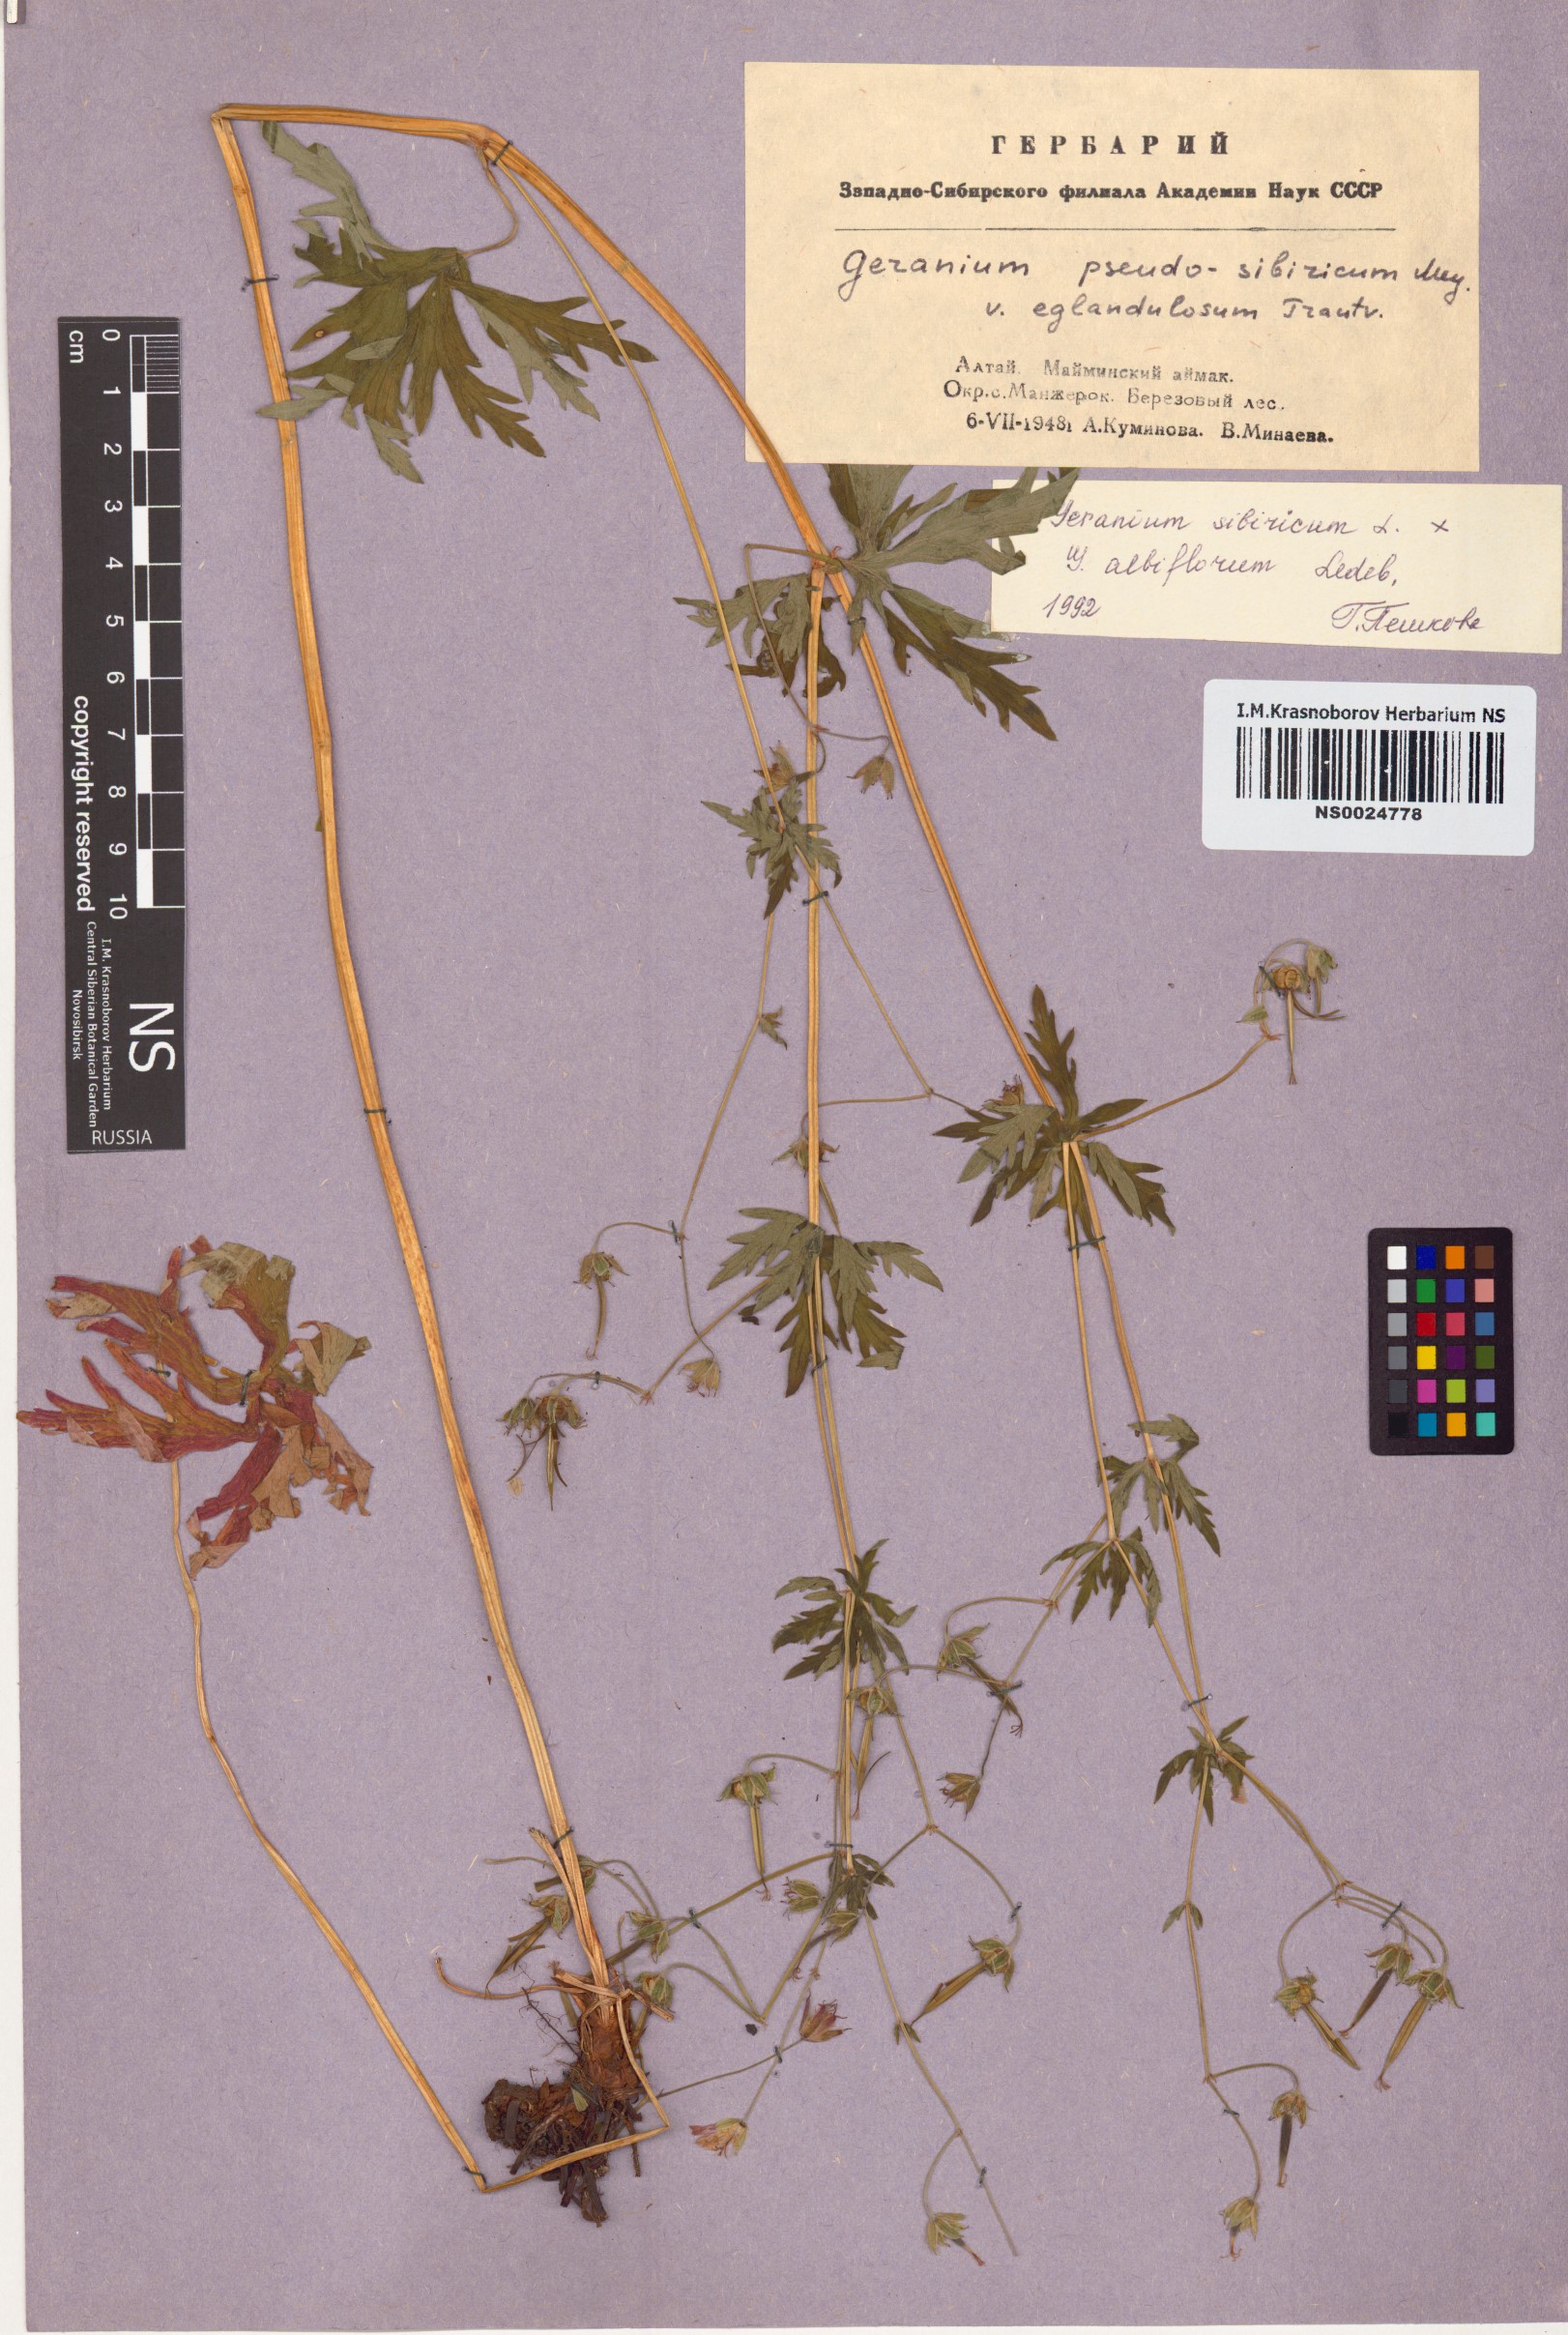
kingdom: Plantae
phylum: Tracheophyta
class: Magnoliopsida
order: Geraniales
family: Geraniaceae
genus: Geranium
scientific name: Geranium sibiricum
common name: Siberian crane's-bill
